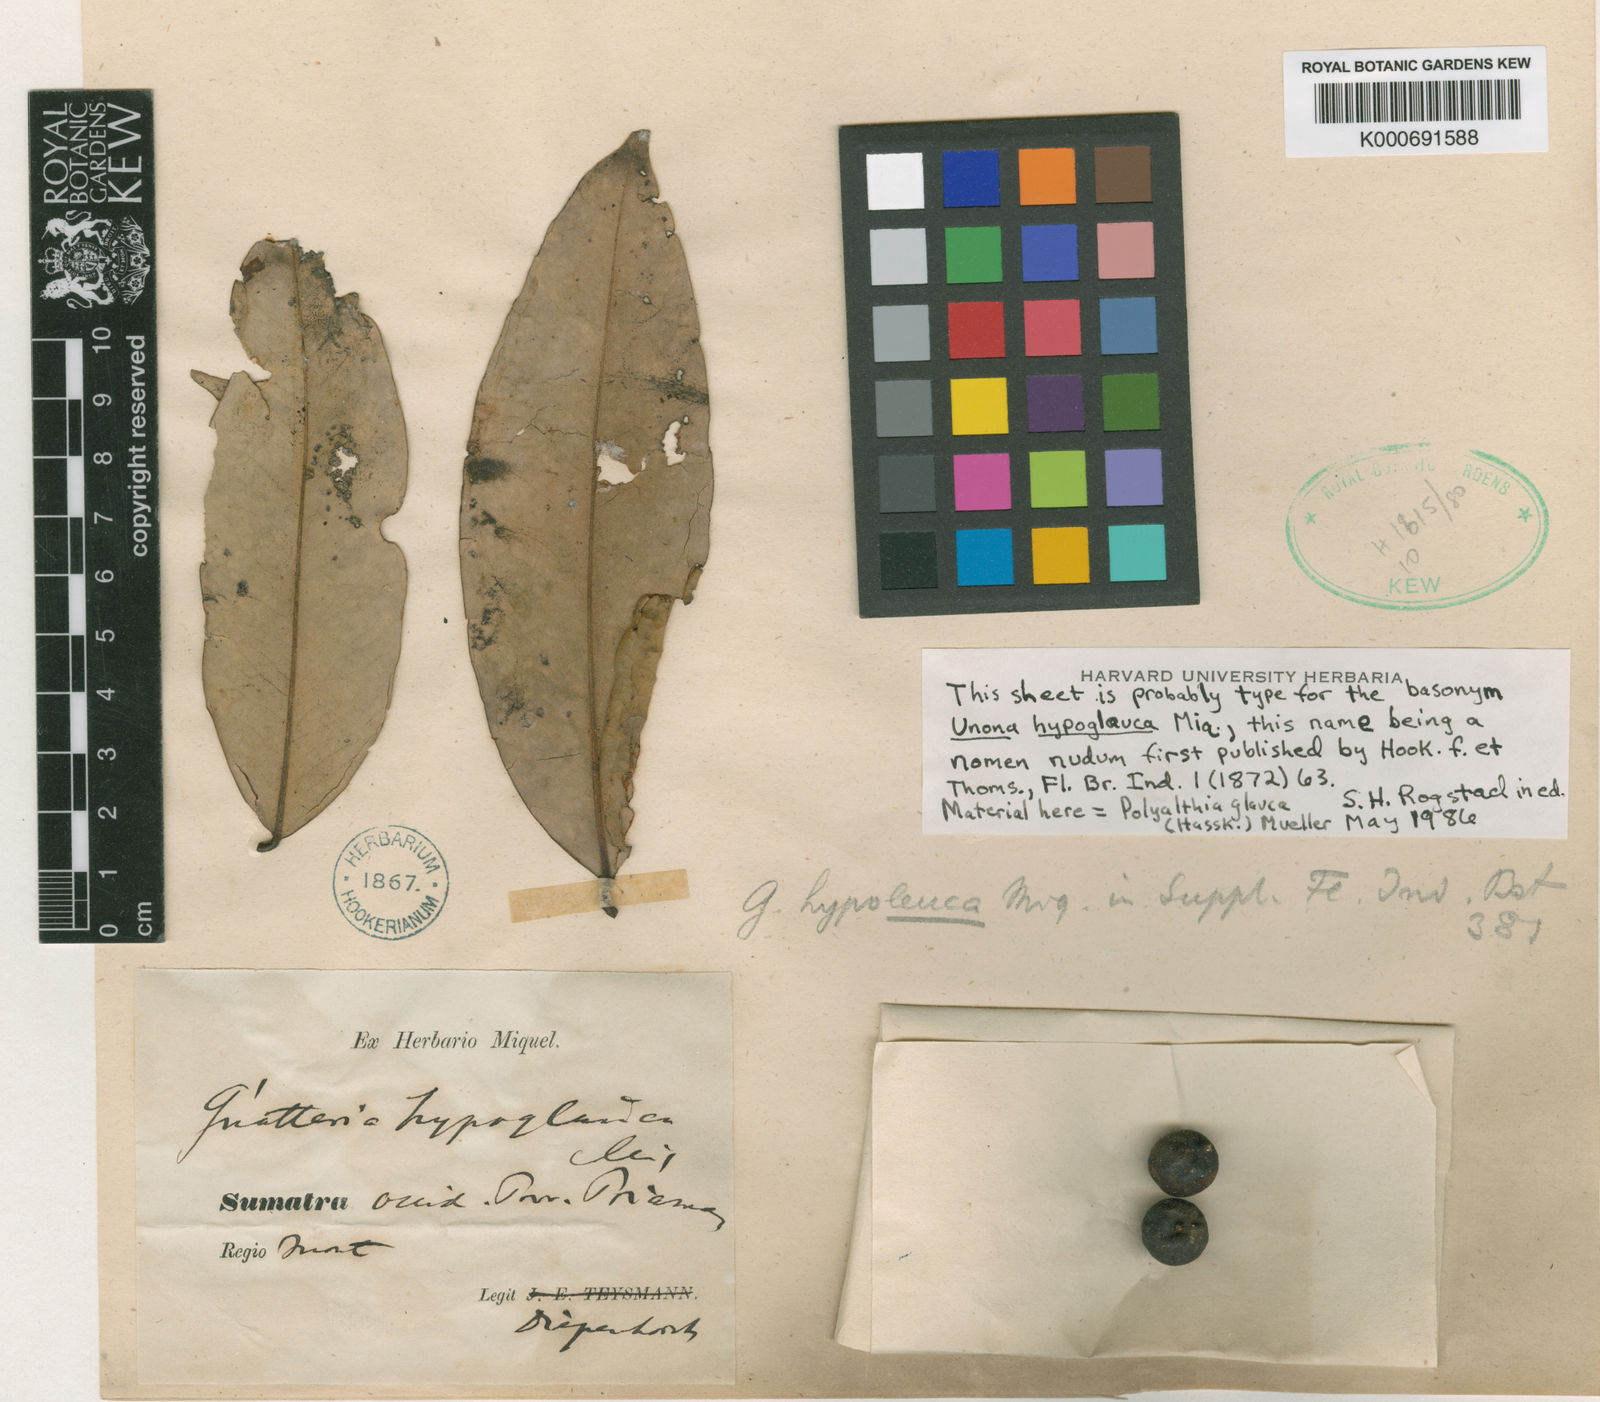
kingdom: Plantae
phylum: Tracheophyta
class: Magnoliopsida
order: Magnoliales
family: Annonaceae
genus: Maasia
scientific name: Maasia glauca
